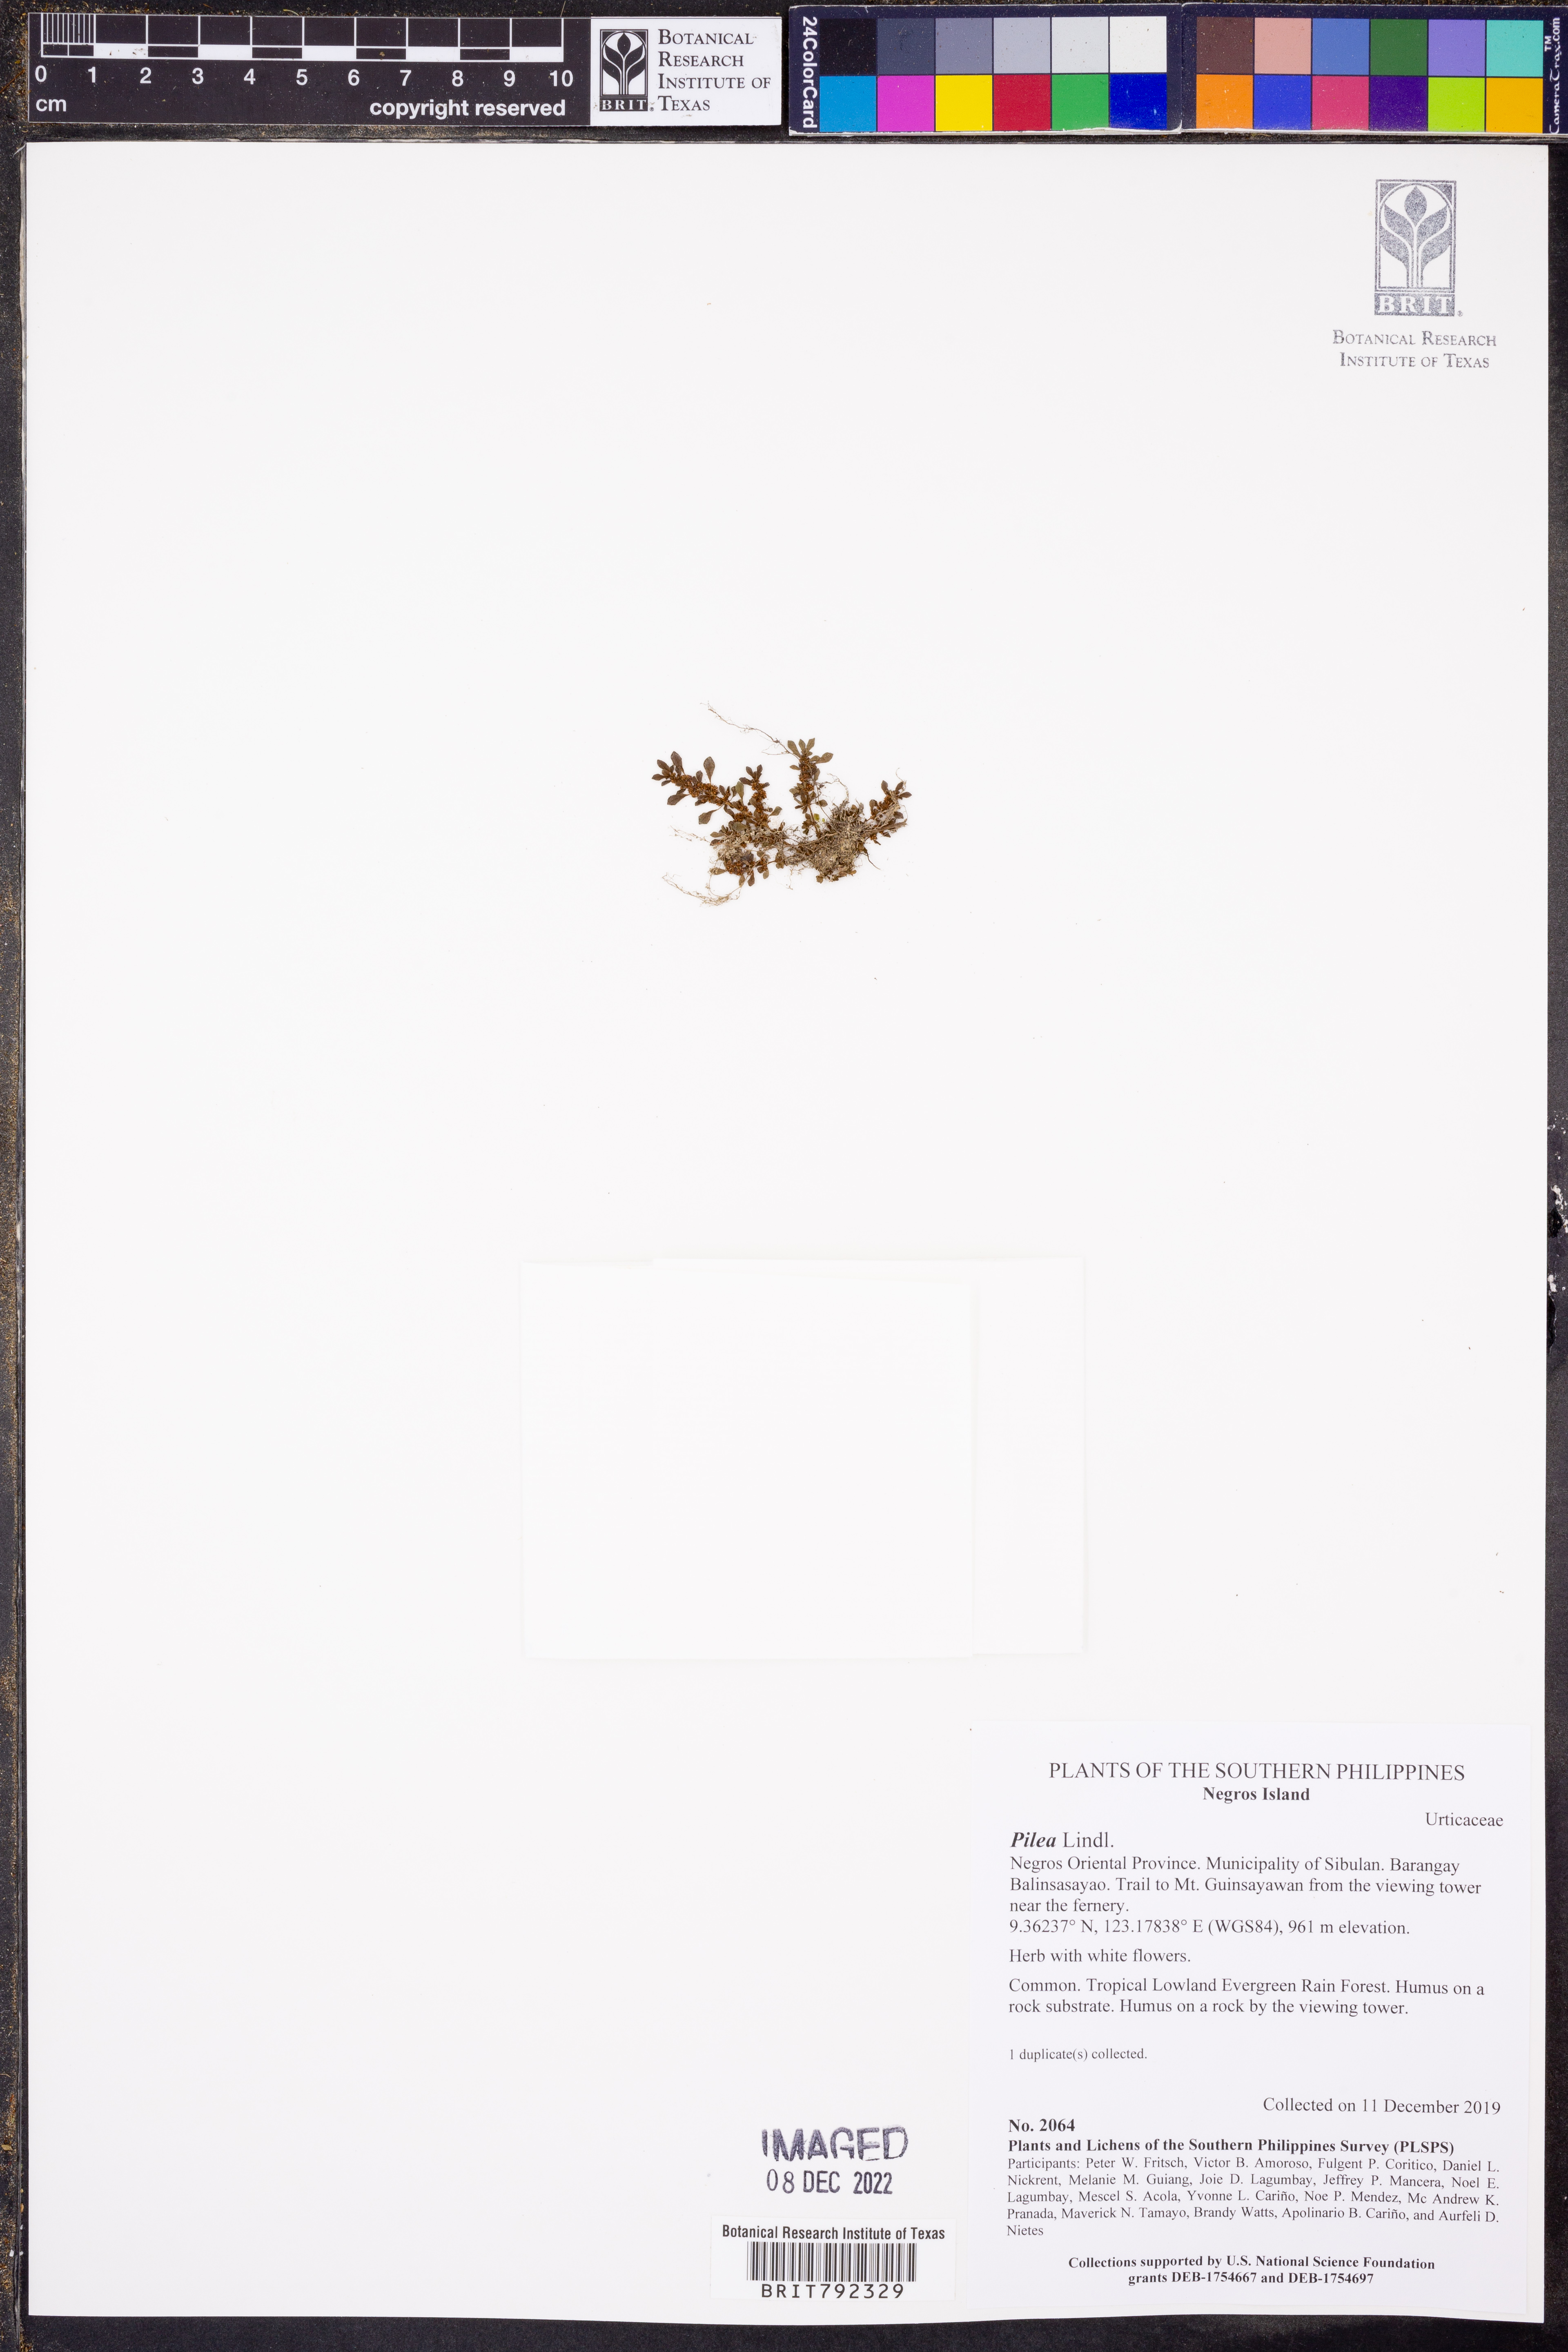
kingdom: Plantae
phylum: Tracheophyta
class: Magnoliopsida
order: Rosales
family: Urticaceae
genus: Pilea
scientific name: Pilea
